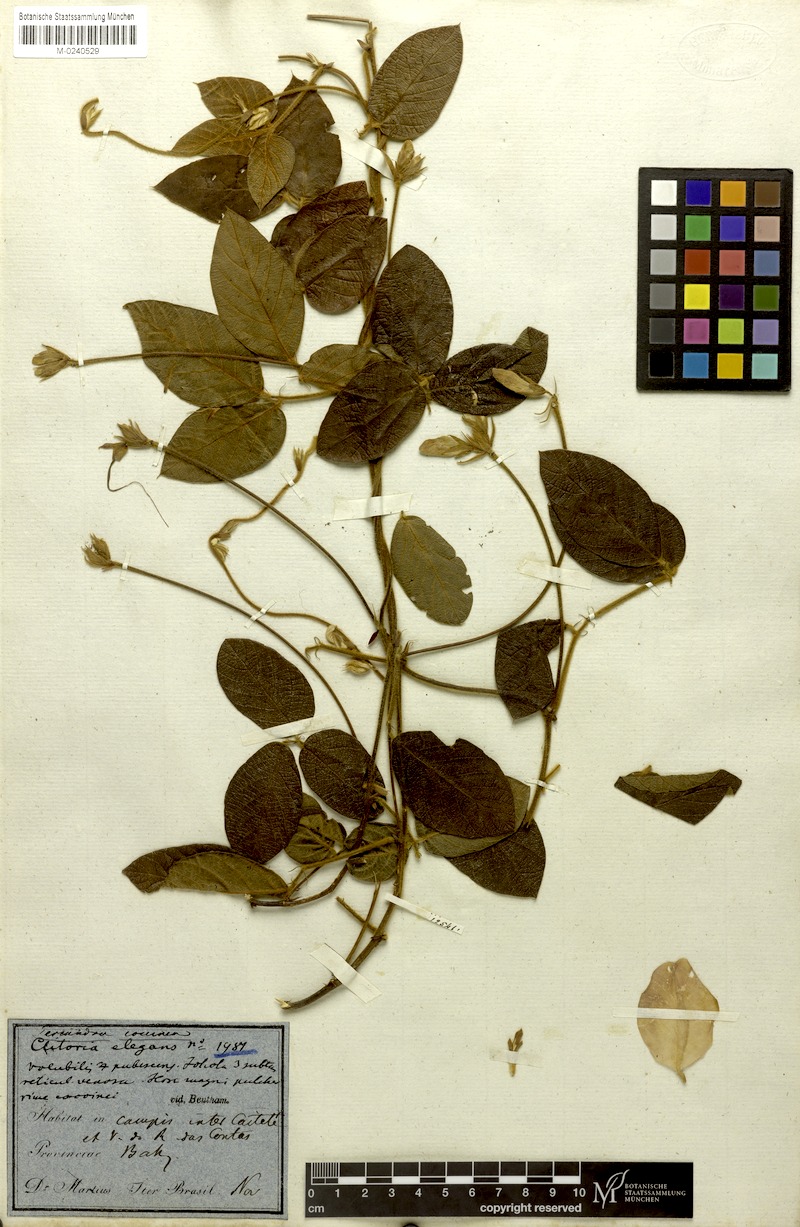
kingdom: Plantae
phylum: Tracheophyta
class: Magnoliopsida
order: Fabales
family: Fabaceae
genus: Periandra
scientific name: Periandra coccinea
